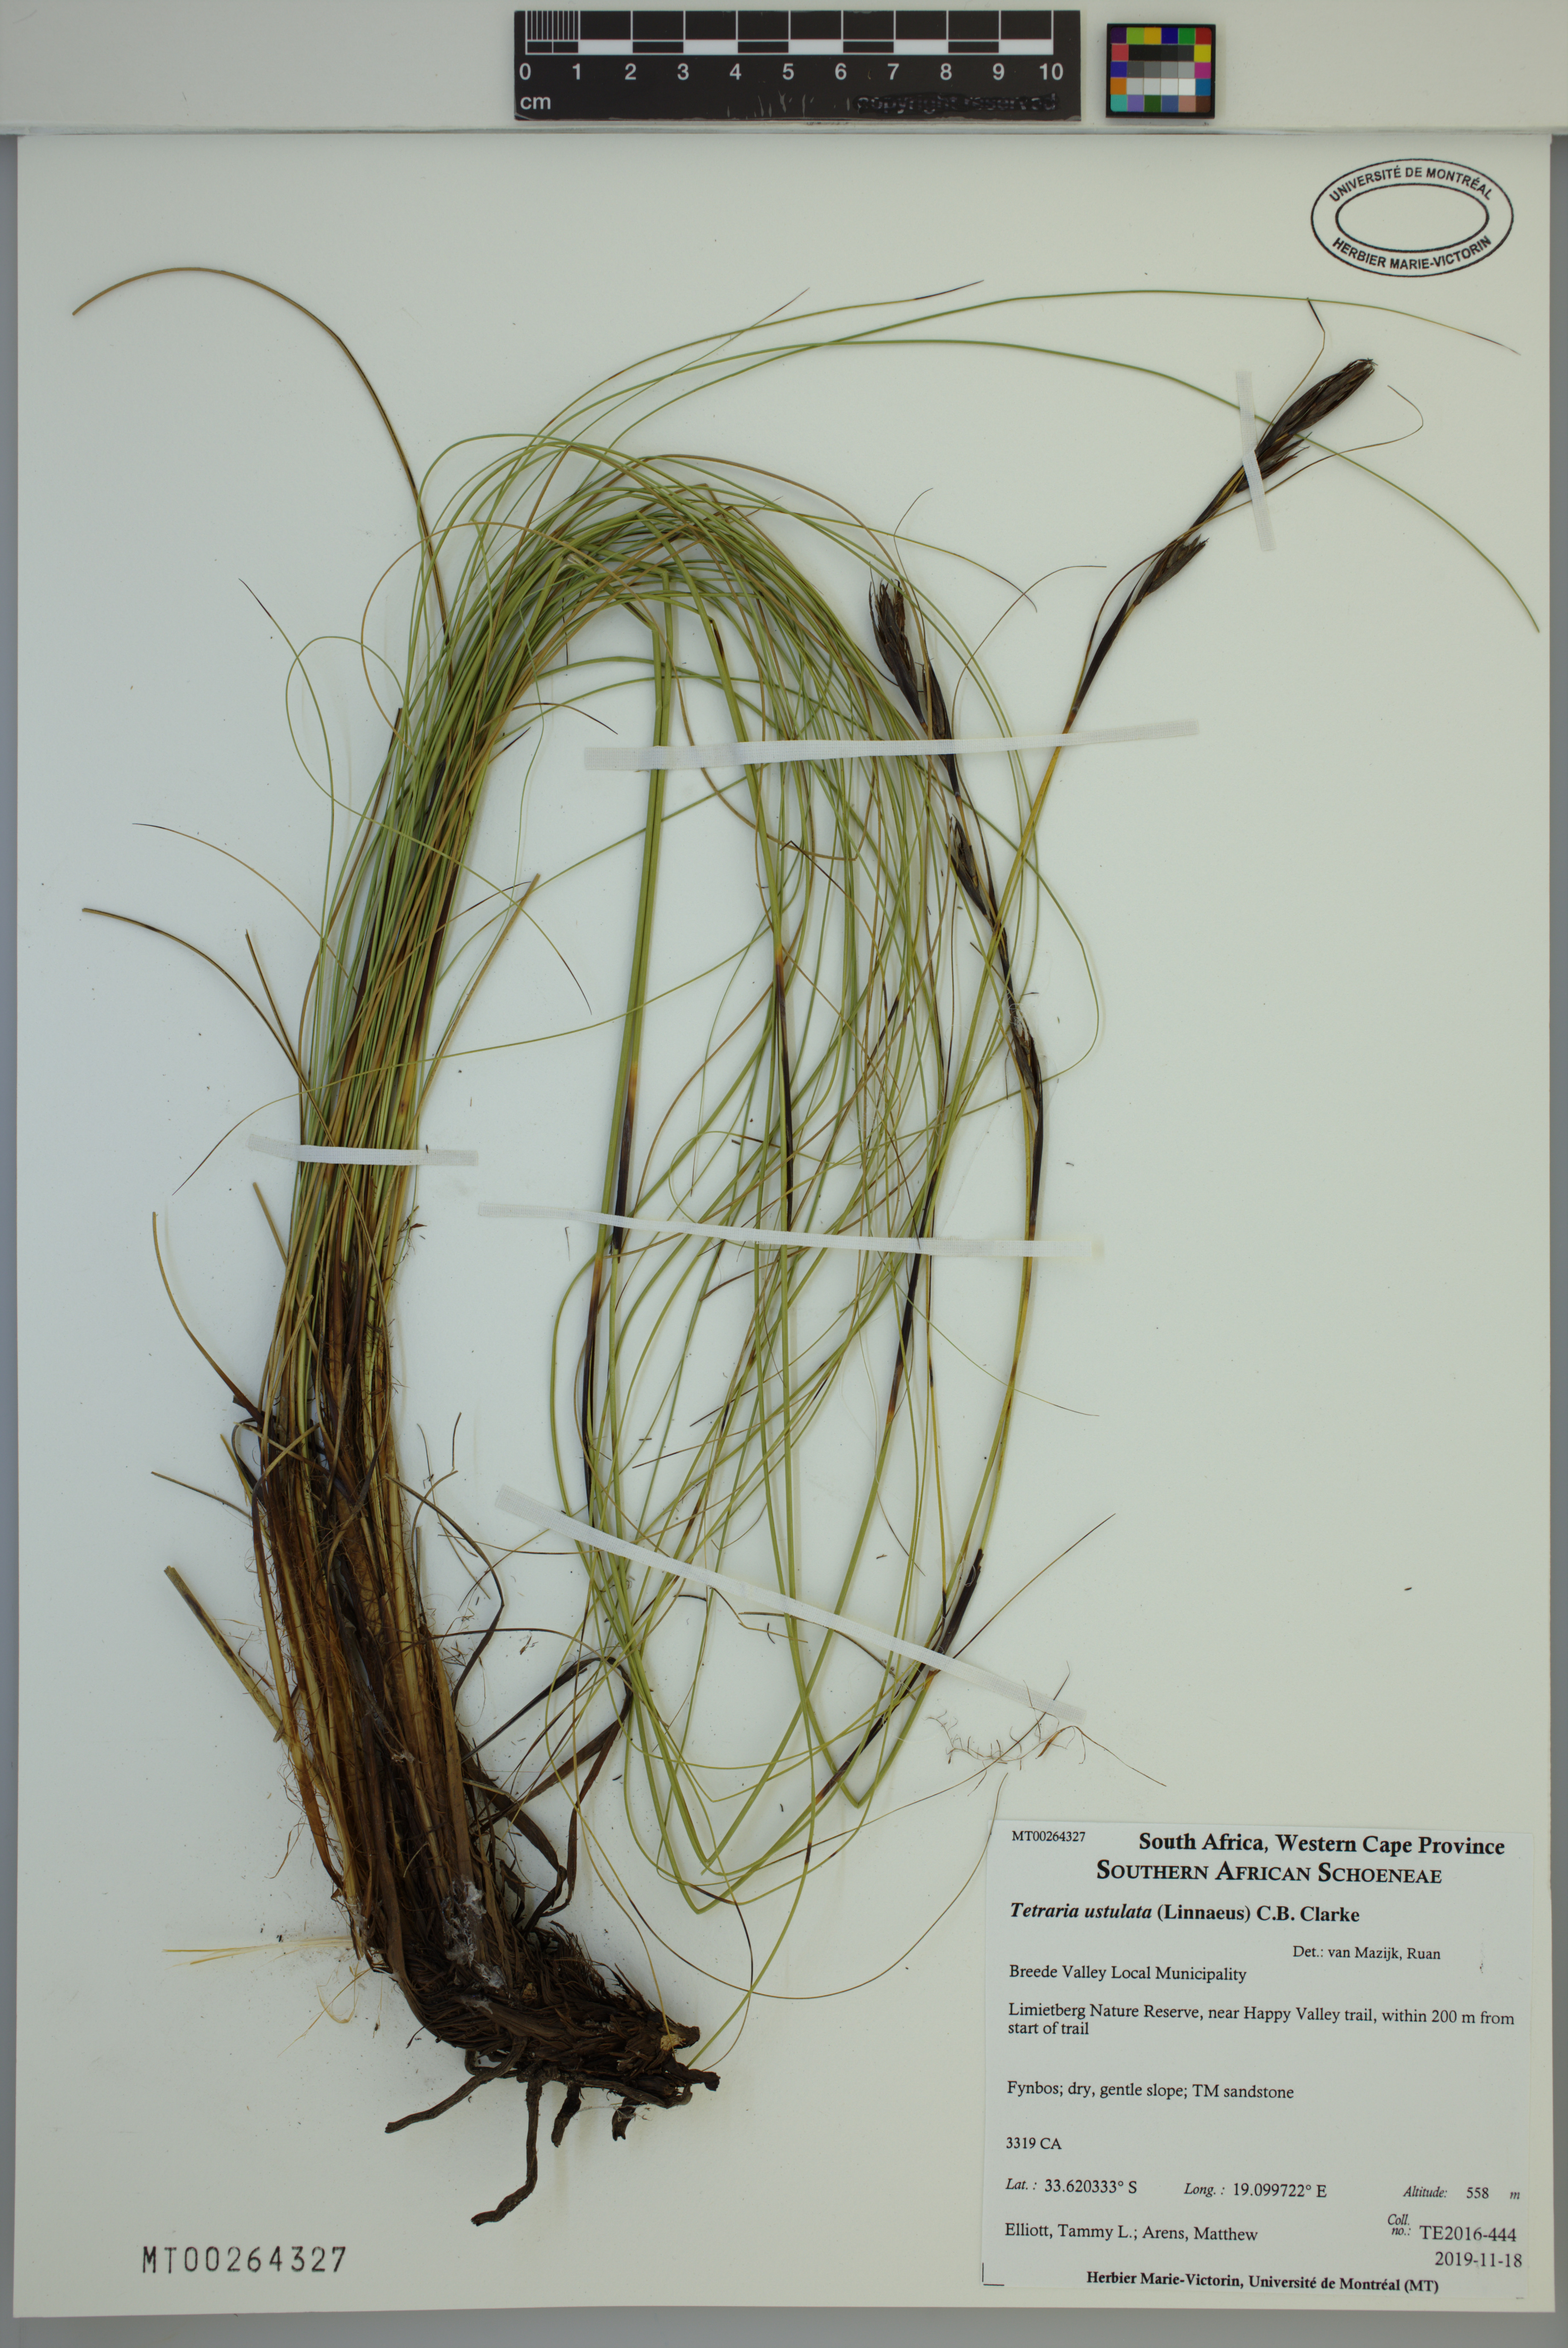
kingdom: Plantae
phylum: Tracheophyta
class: Liliopsida
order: Poales
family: Cyperaceae
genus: Tetraria
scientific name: Tetraria ustulata
